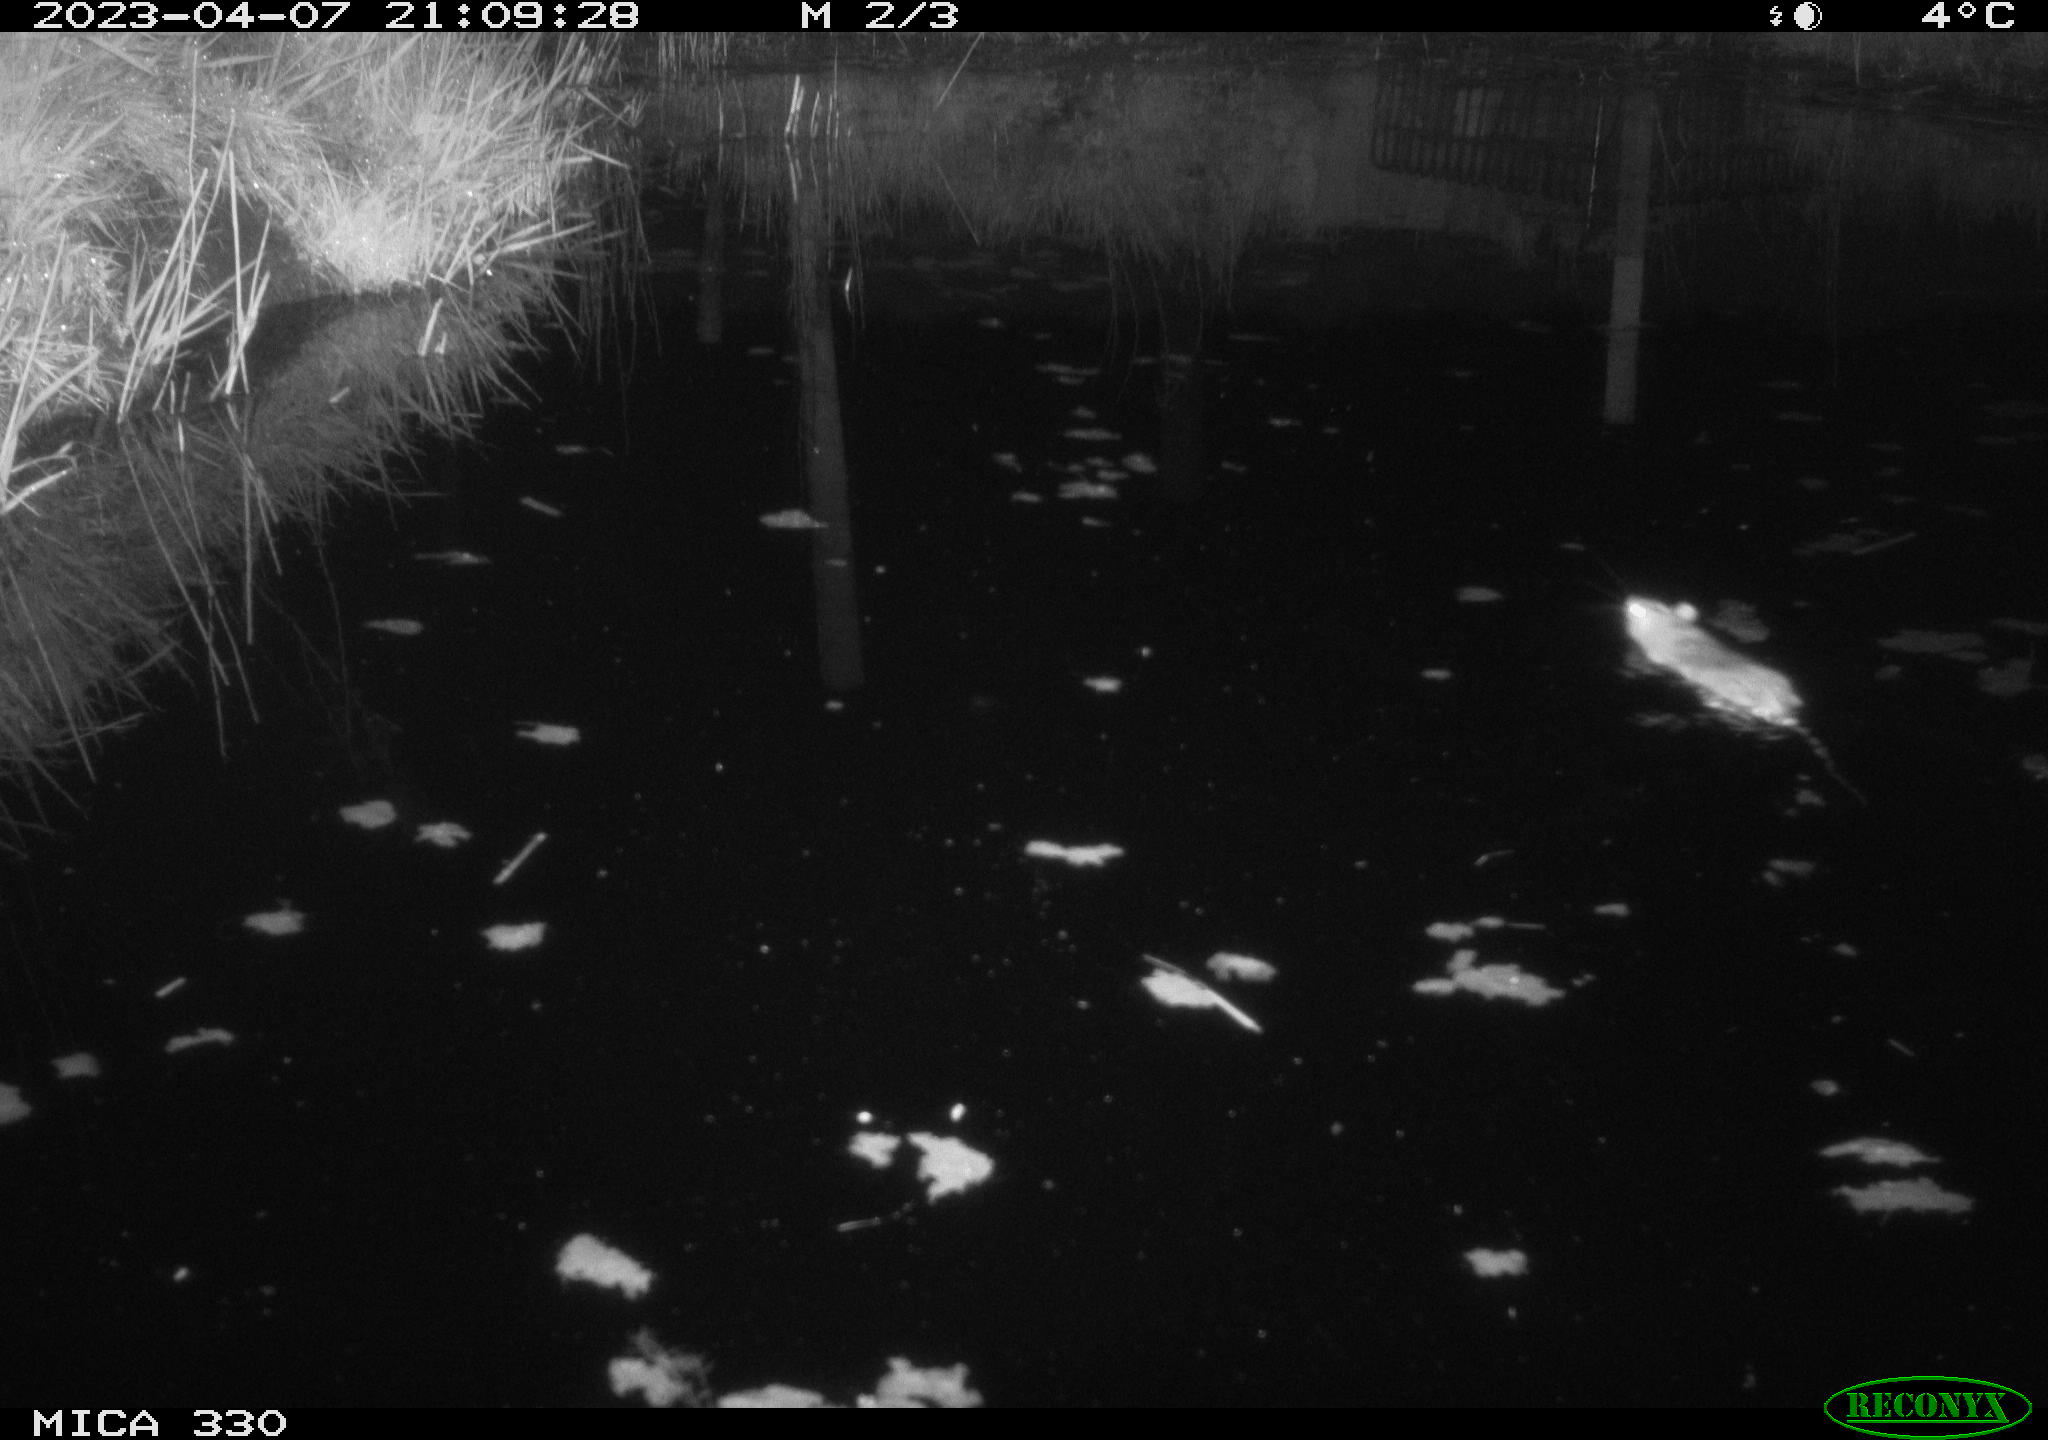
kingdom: Animalia
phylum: Chordata
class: Mammalia
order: Rodentia
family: Muridae
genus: Rattus
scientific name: Rattus norvegicus
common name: Brown rat
